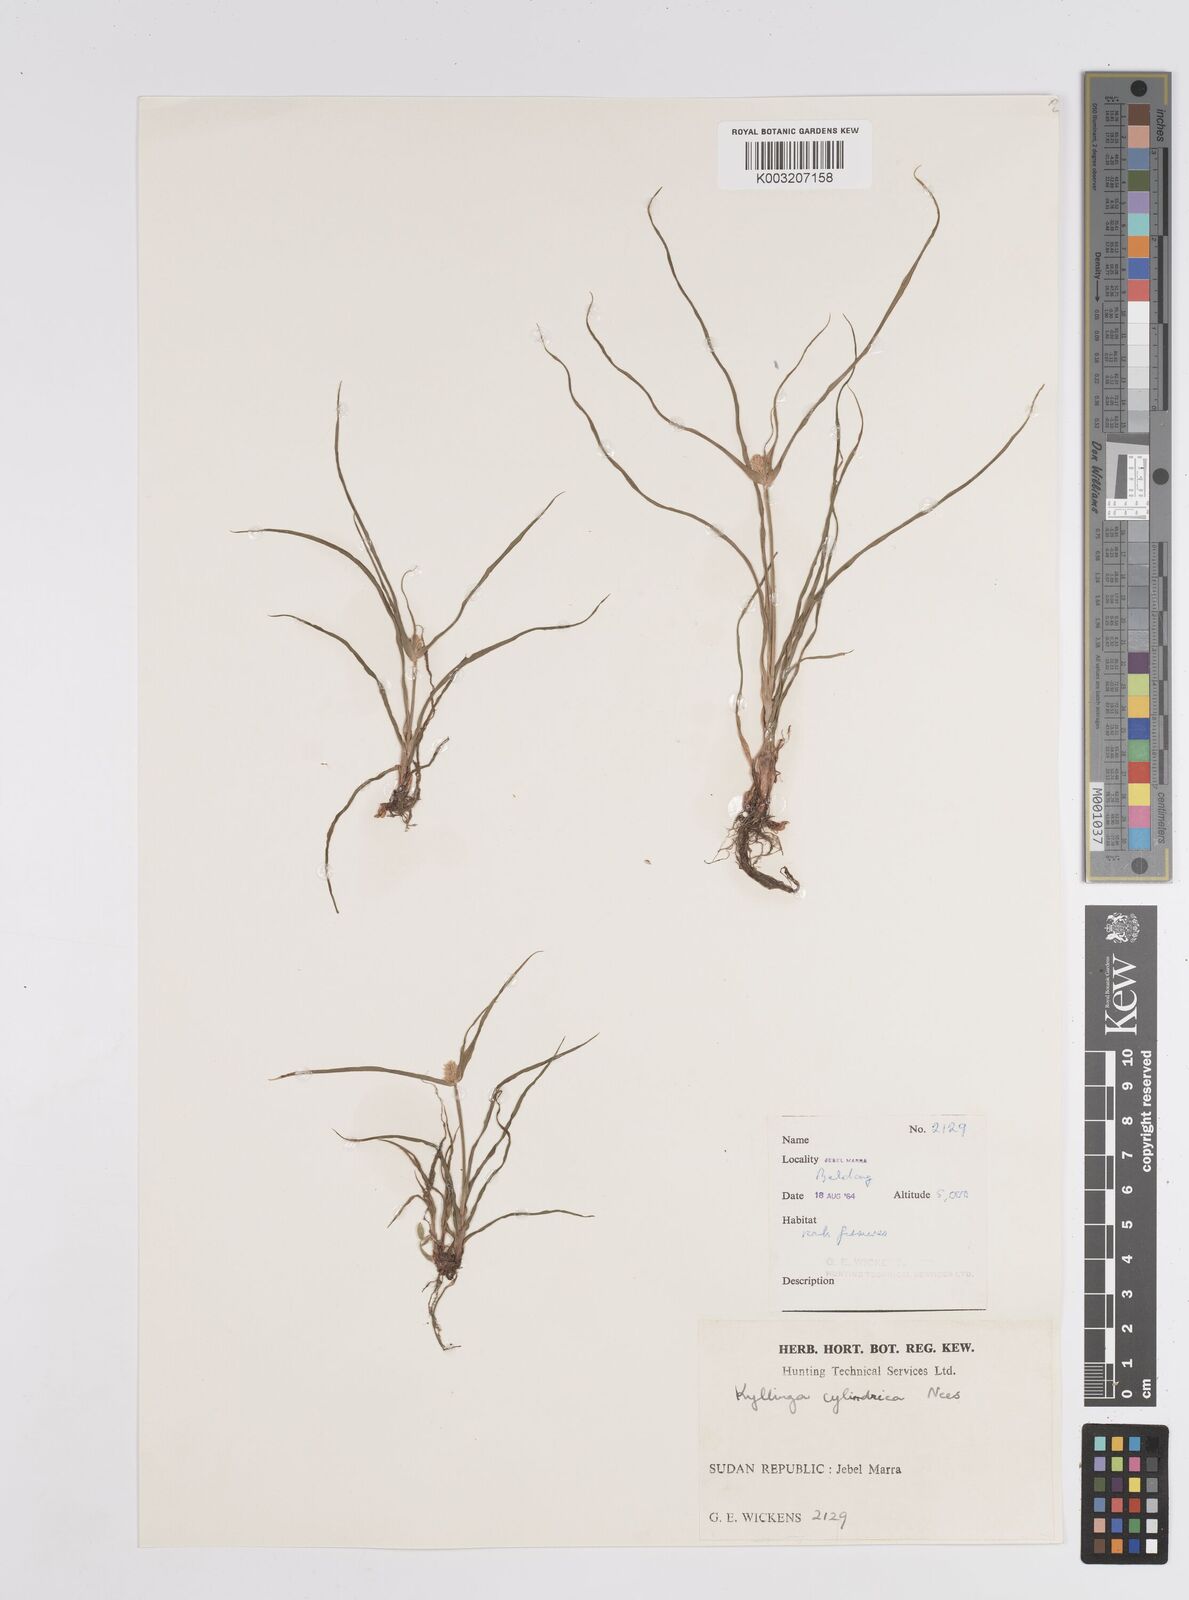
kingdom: Plantae
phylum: Tracheophyta
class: Liliopsida
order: Poales
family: Cyperaceae
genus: Cyperus
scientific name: Cyperus
